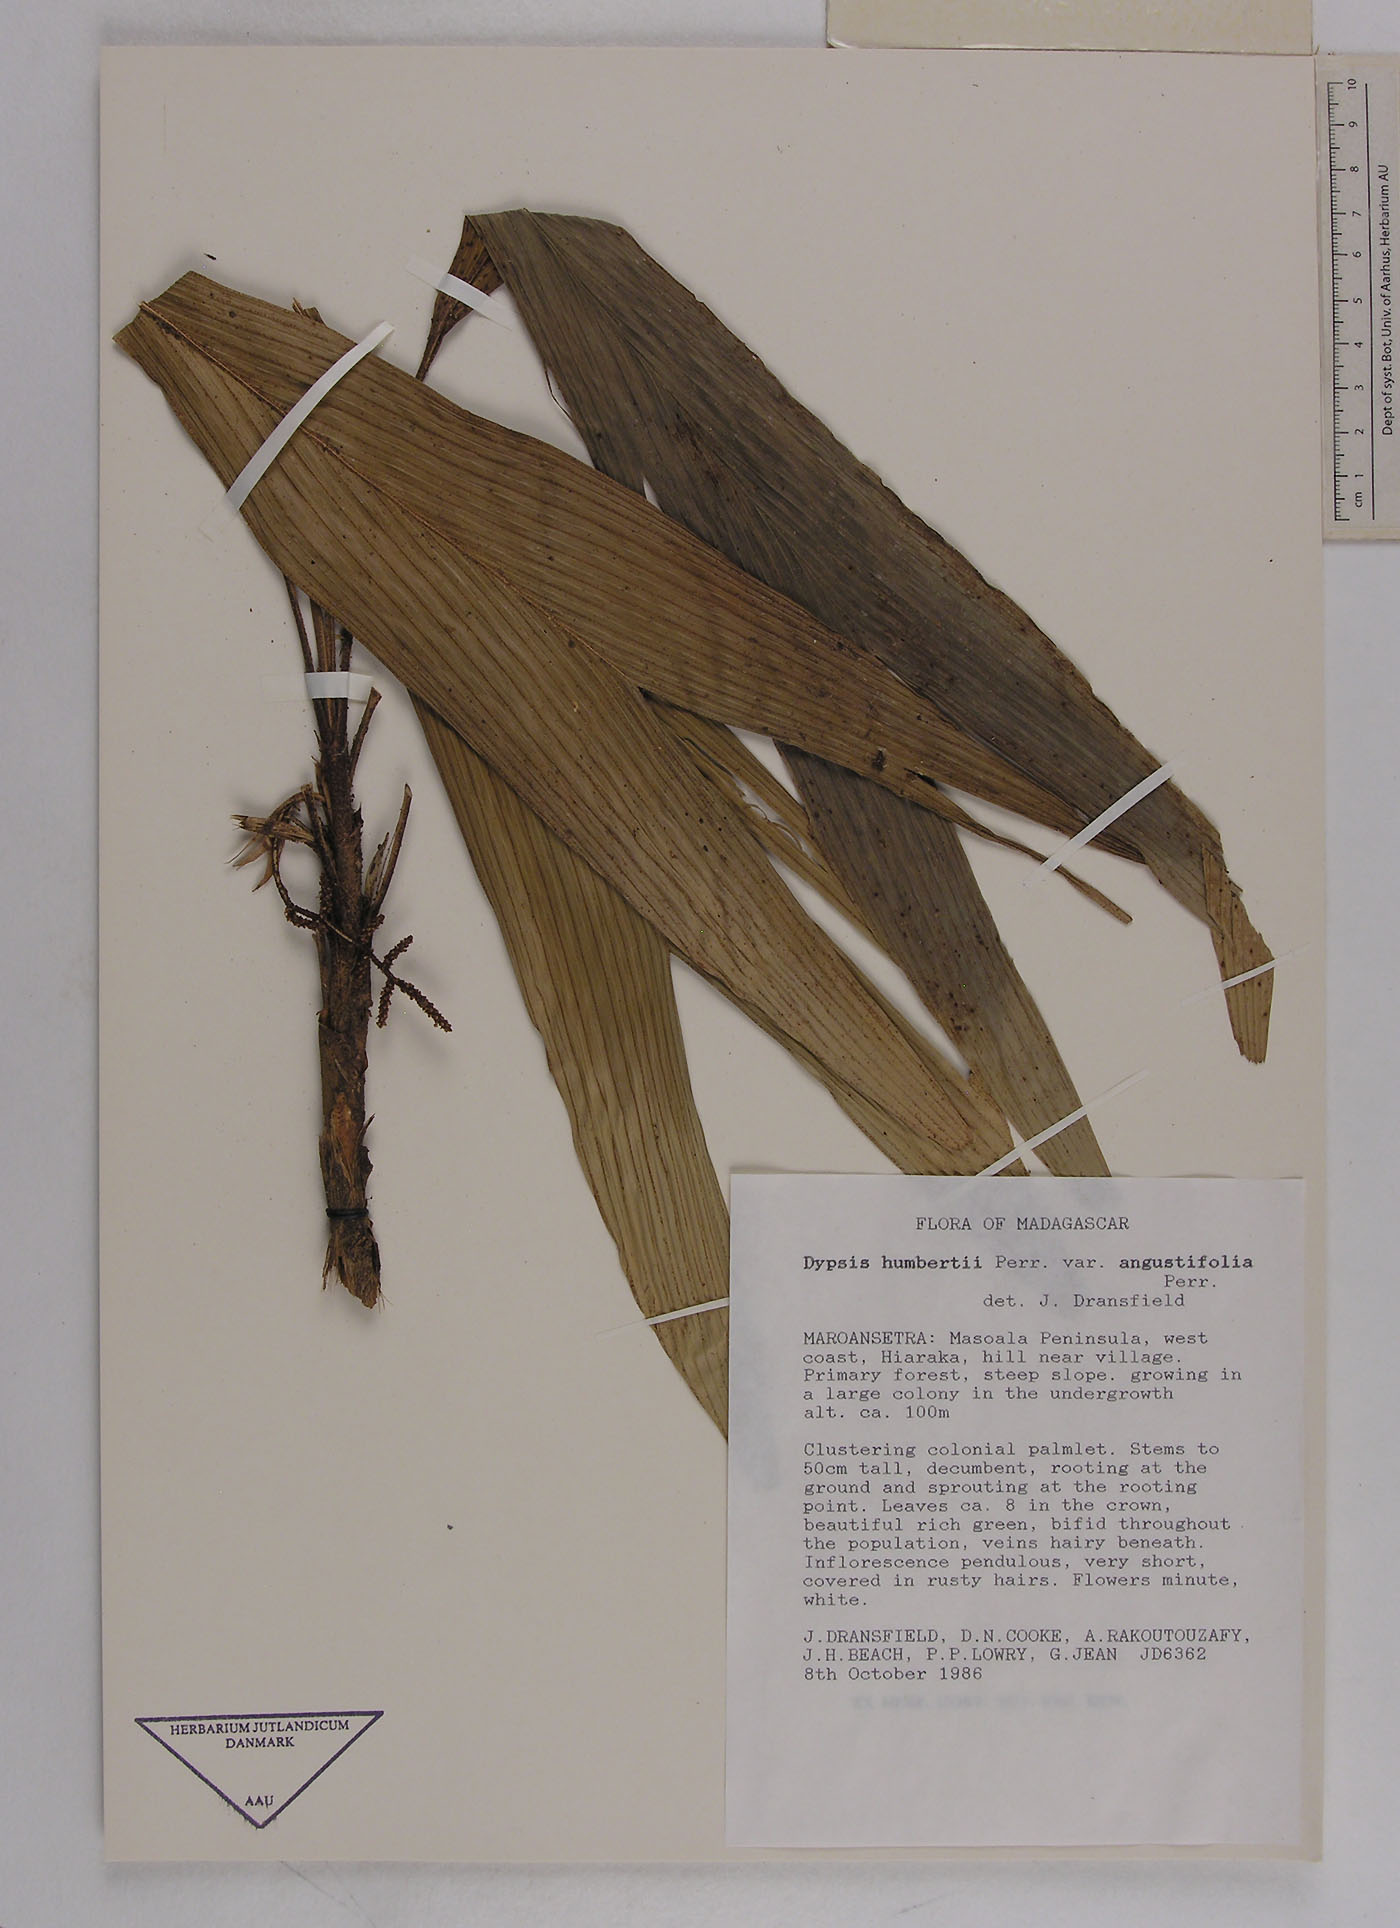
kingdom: Plantae
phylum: Tracheophyta
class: Liliopsida
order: Arecales
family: Arecaceae
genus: Dypsis
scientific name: Dypsis humbertii
